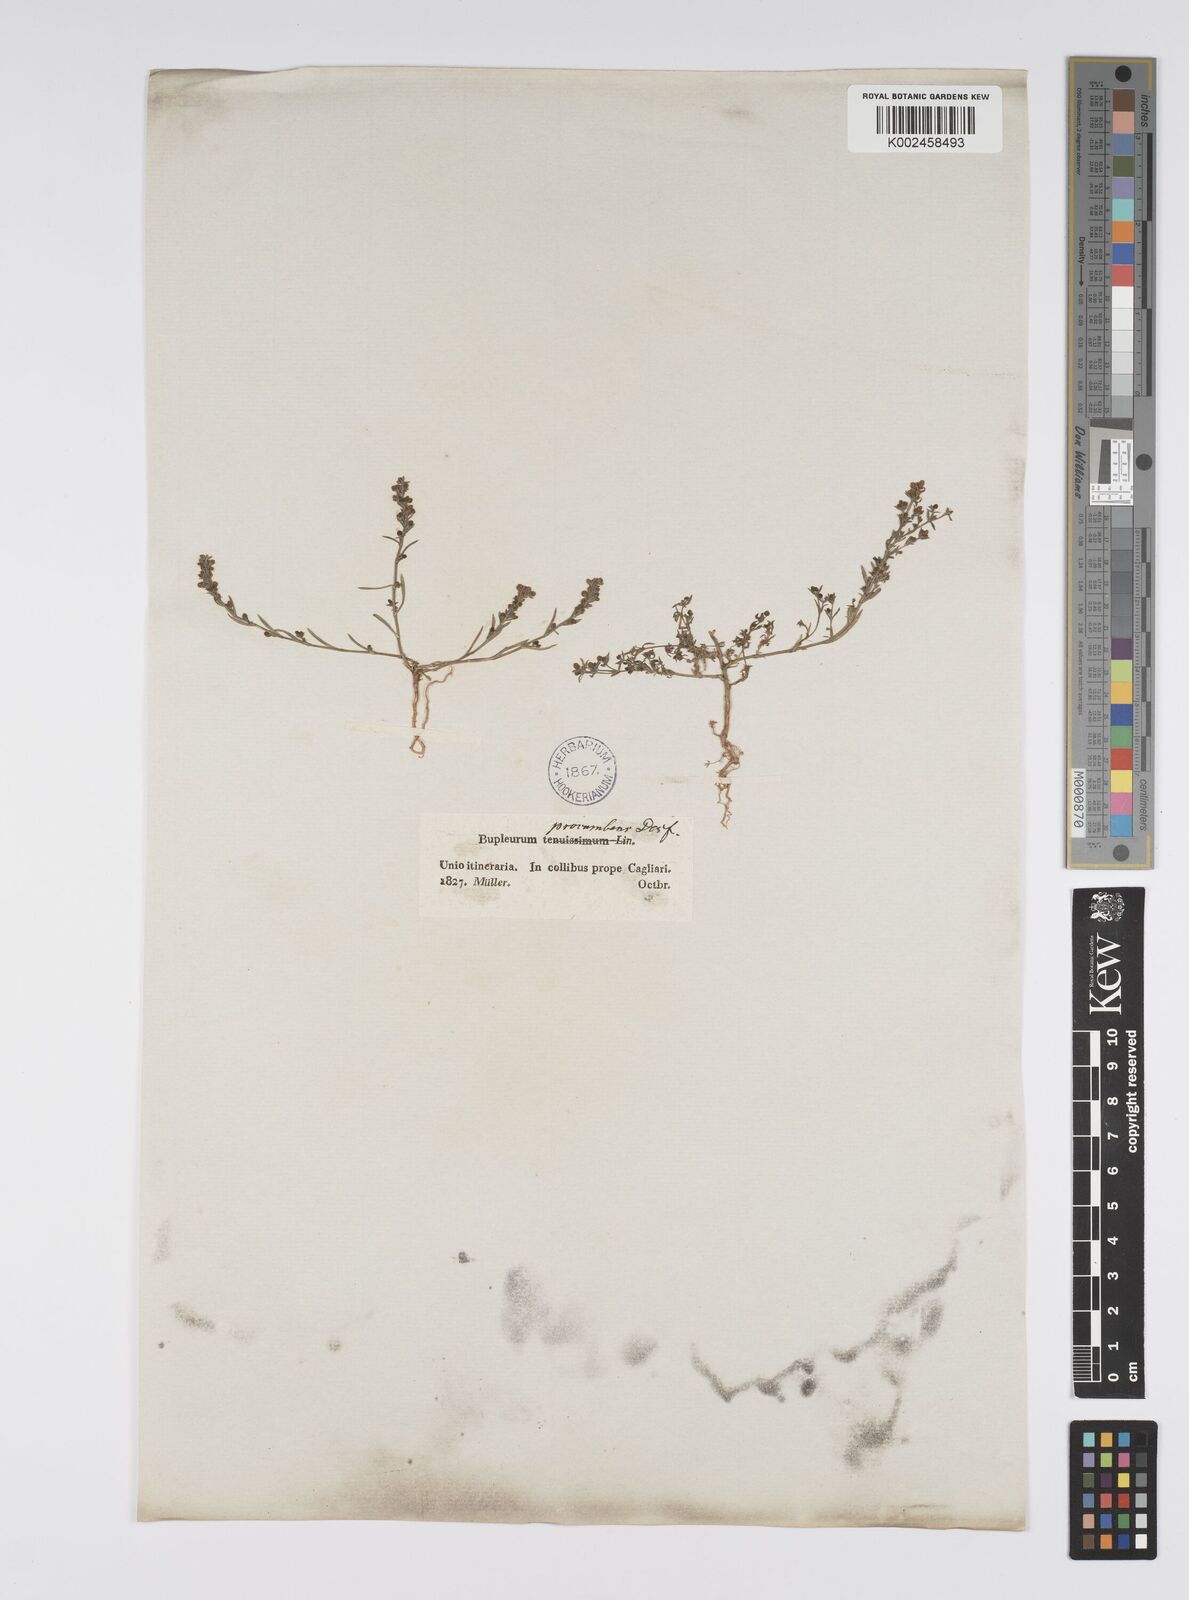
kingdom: Plantae
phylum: Tracheophyta
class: Magnoliopsida
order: Apiales
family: Apiaceae
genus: Bupleurum
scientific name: Bupleurum tenuissimum
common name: Slender hare's-ear
